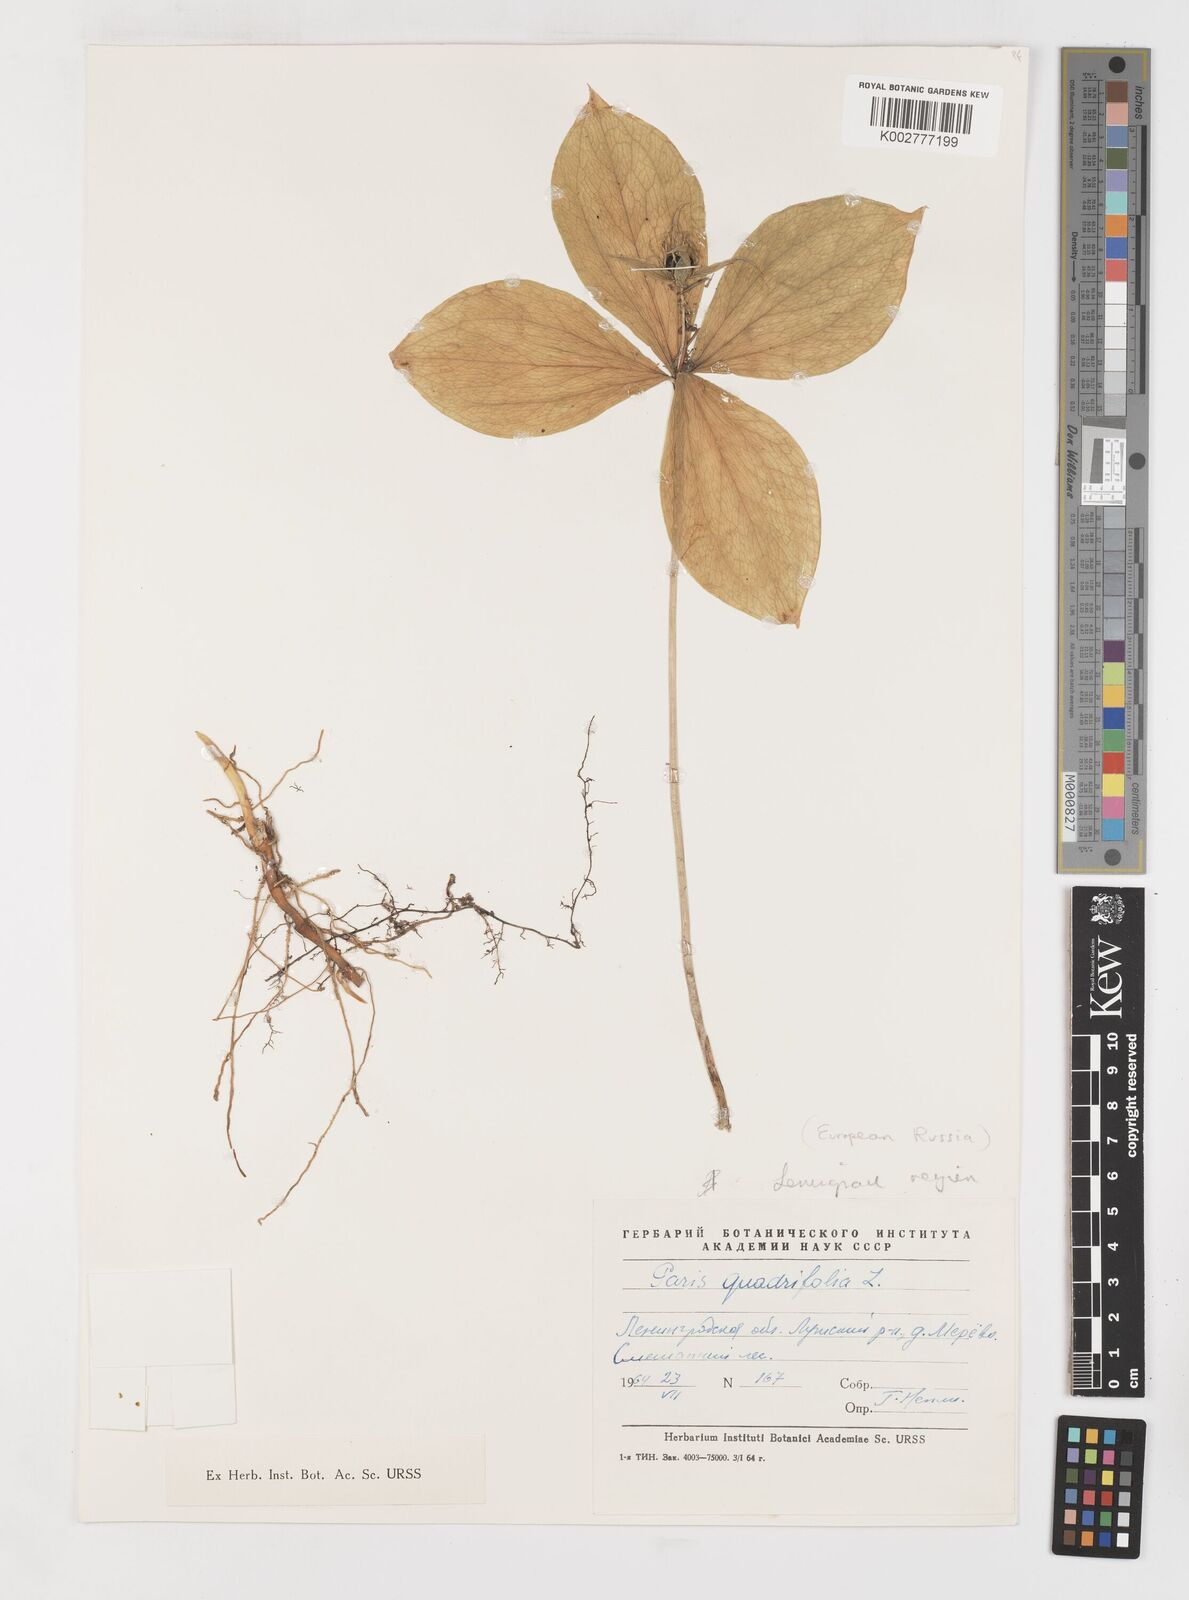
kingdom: Plantae
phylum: Tracheophyta
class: Liliopsida
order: Liliales
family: Melanthiaceae
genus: Paris
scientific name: Paris quadrifolia
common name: Herb-paris
